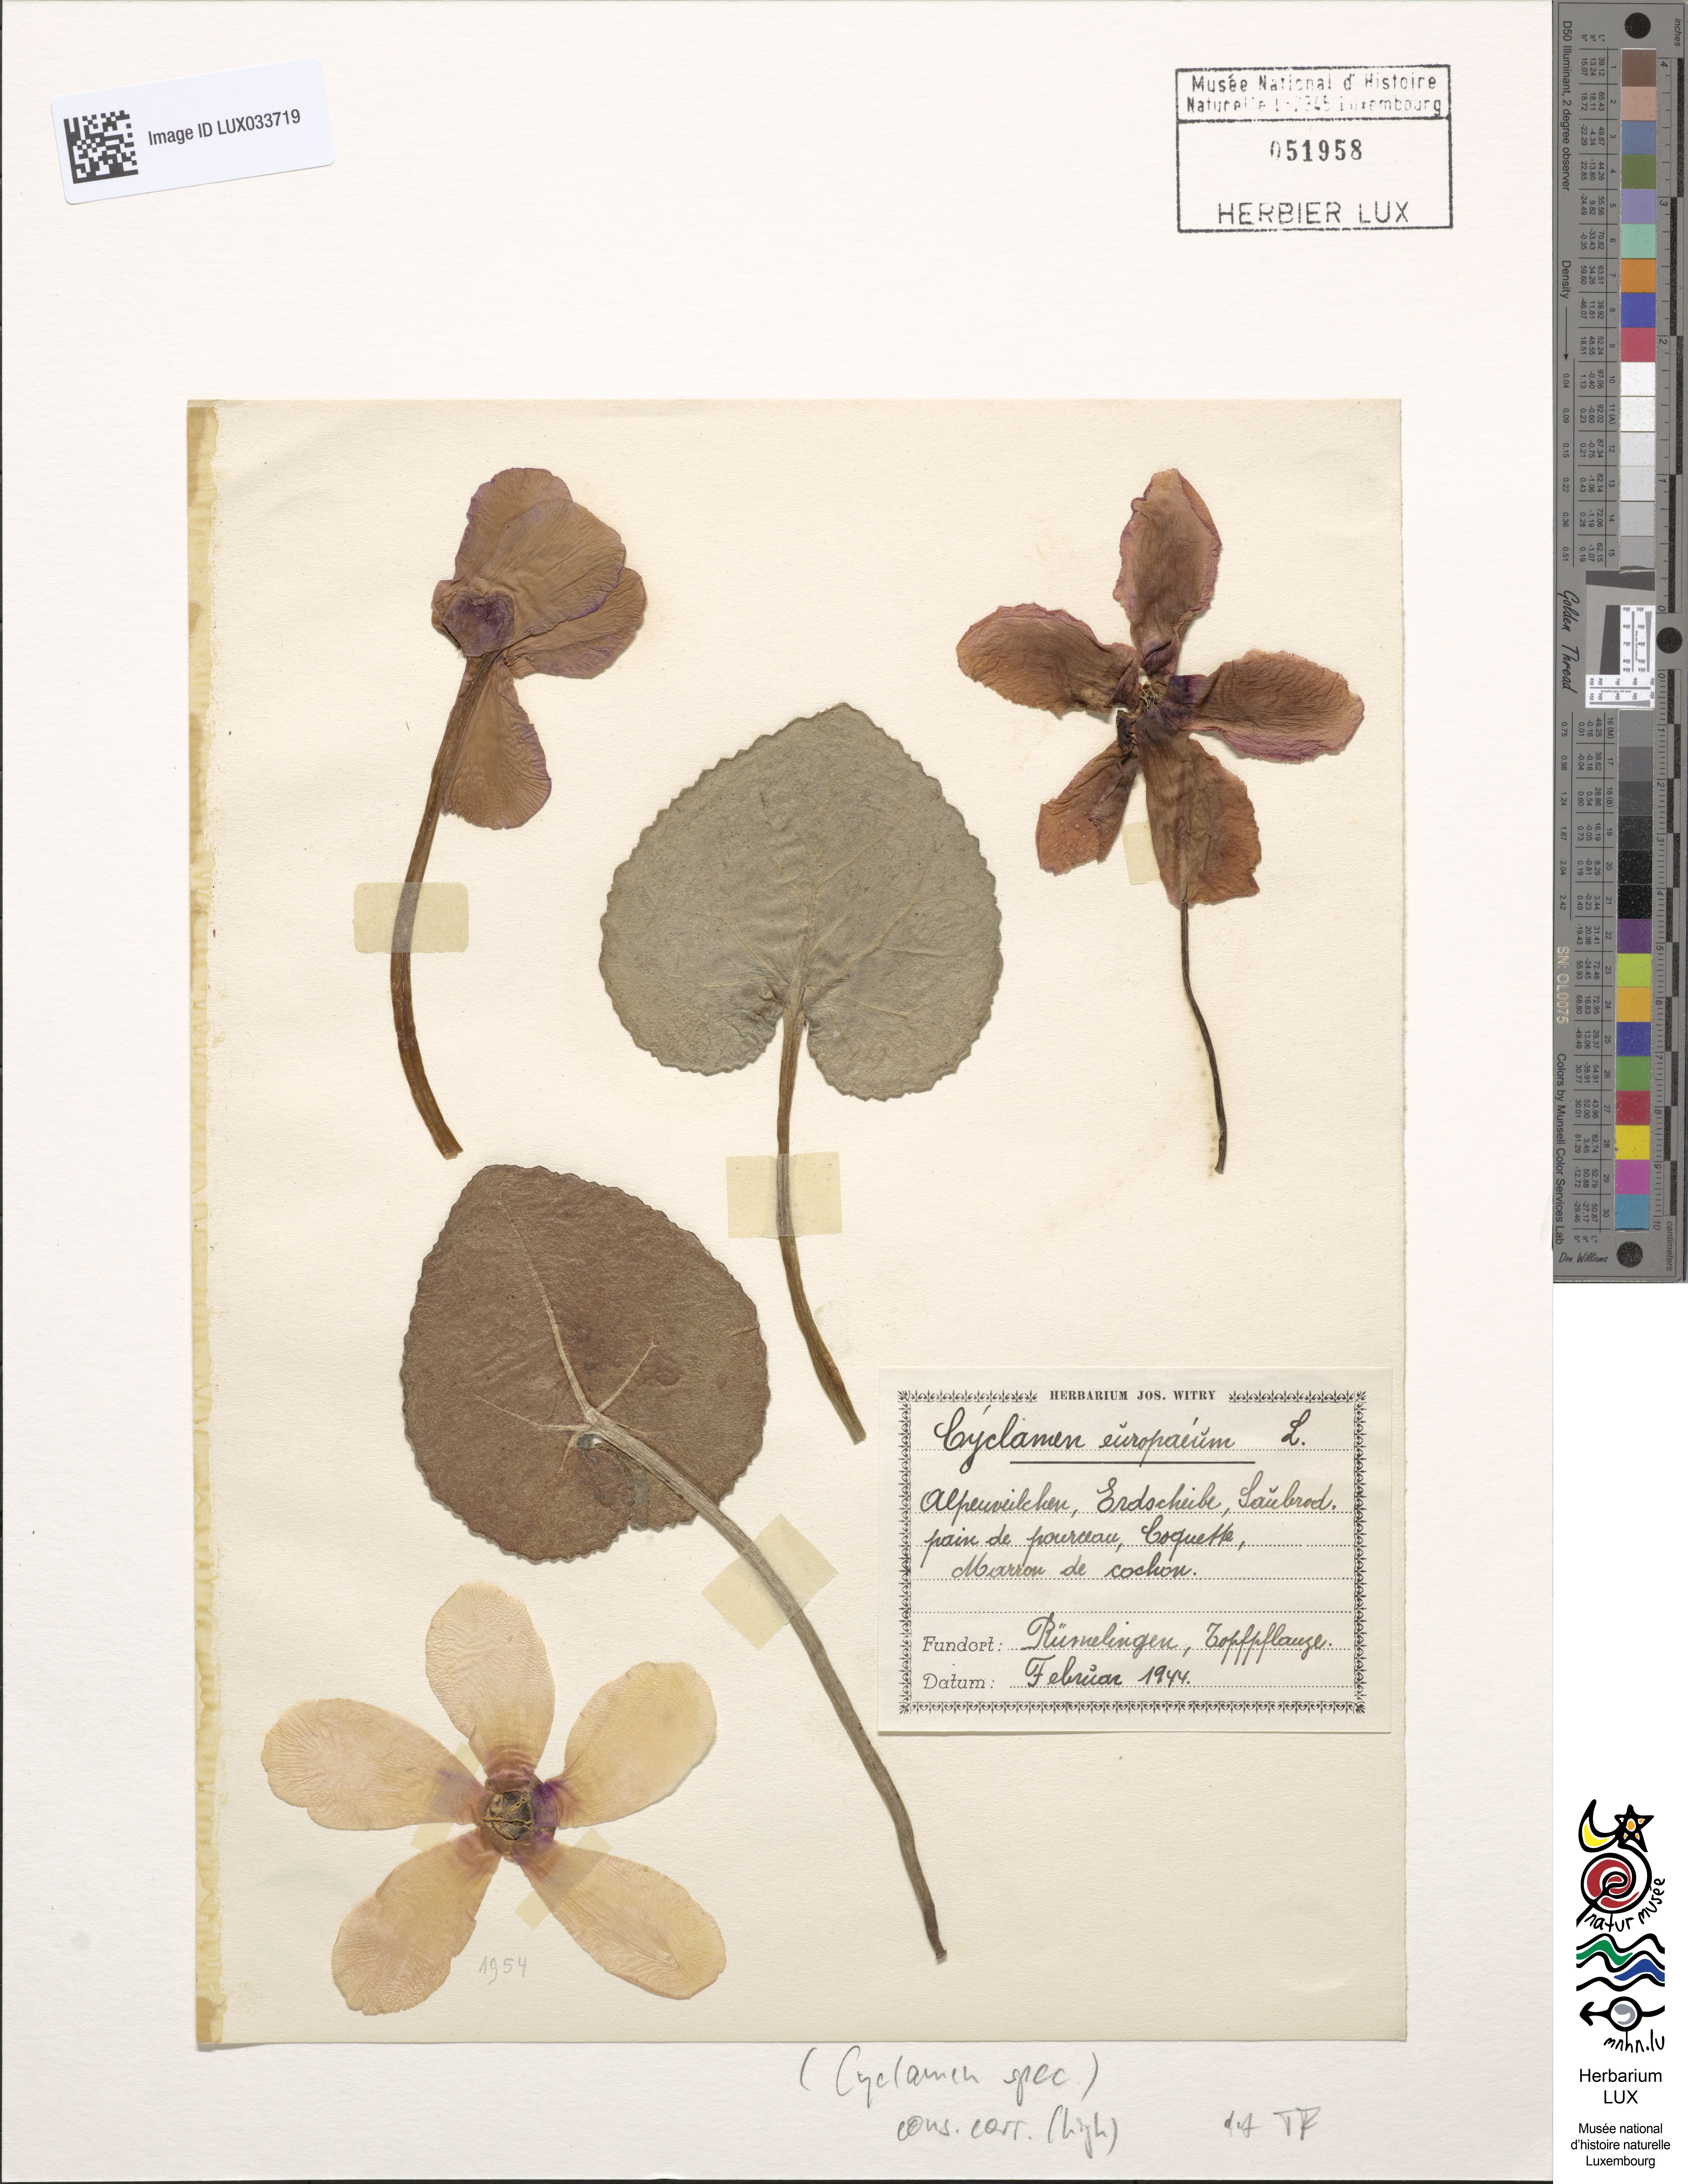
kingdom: Plantae
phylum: Tracheophyta
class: Magnoliopsida
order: Ericales
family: Primulaceae
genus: Cyclamen
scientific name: Cyclamen
